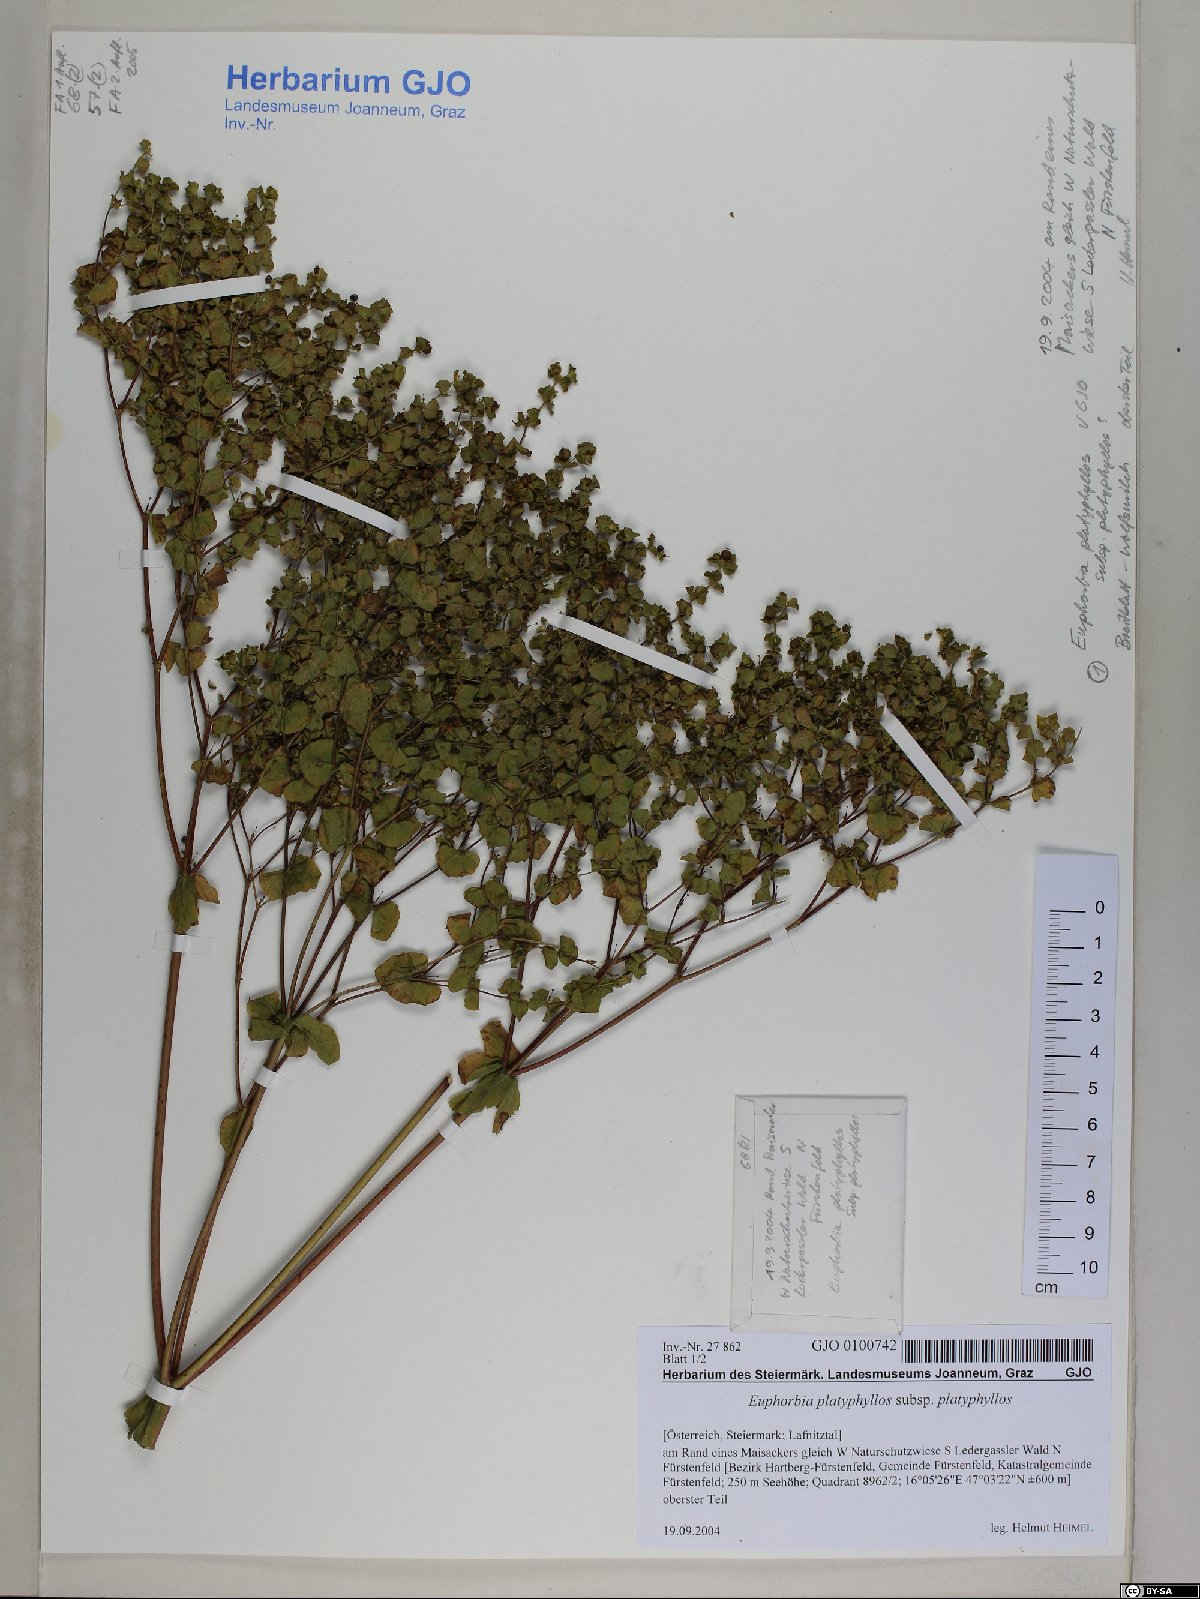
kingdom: Plantae
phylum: Tracheophyta
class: Magnoliopsida
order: Malpighiales
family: Euphorbiaceae
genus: Euphorbia
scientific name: Euphorbia platyphyllos
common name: Broad-leaved spurge
